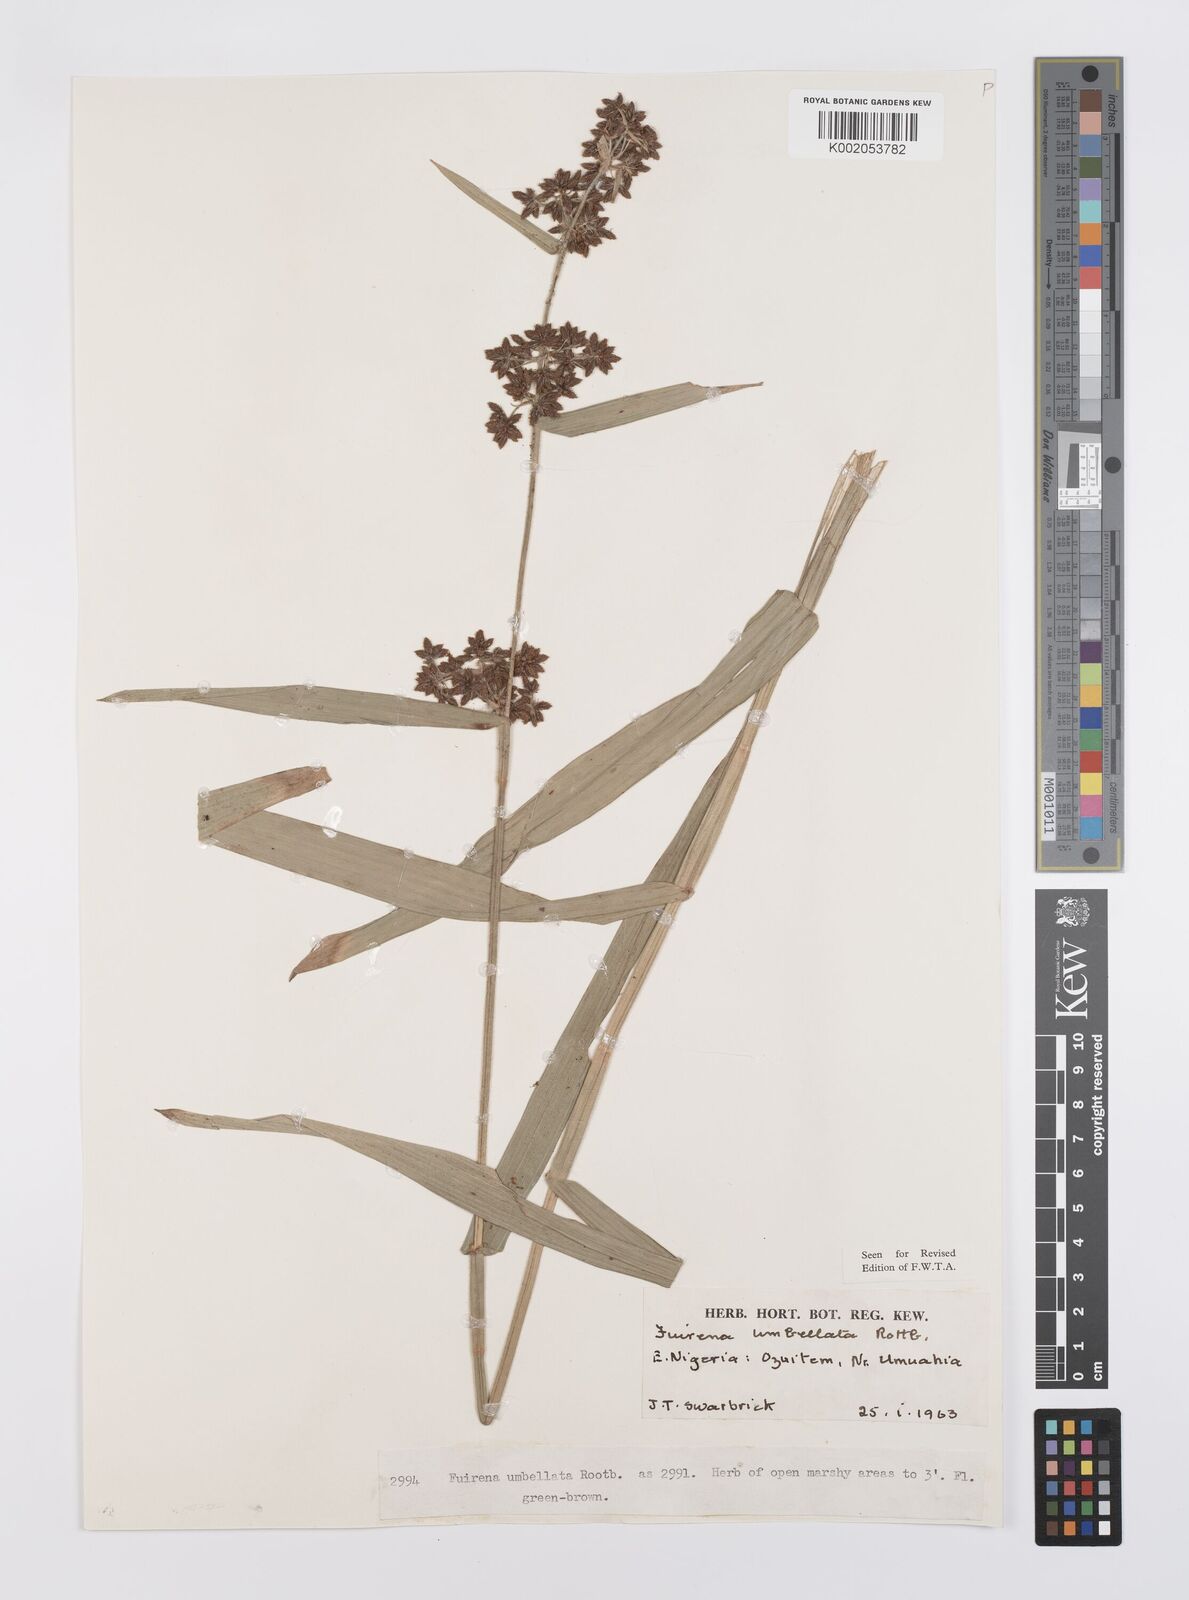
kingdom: Plantae
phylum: Tracheophyta
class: Liliopsida
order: Poales
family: Cyperaceae
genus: Fuirena
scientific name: Fuirena umbellata
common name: Yefen
